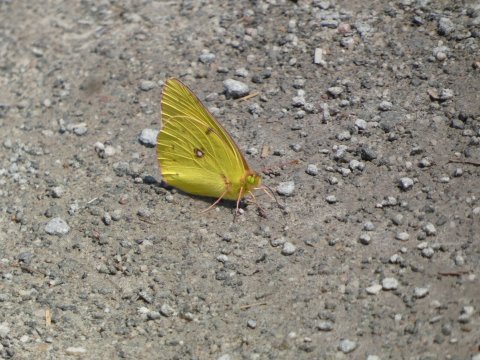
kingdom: Animalia
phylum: Arthropoda
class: Insecta
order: Lepidoptera
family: Pieridae
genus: Colias
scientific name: Colias philodice
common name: Clouded Sulphur
